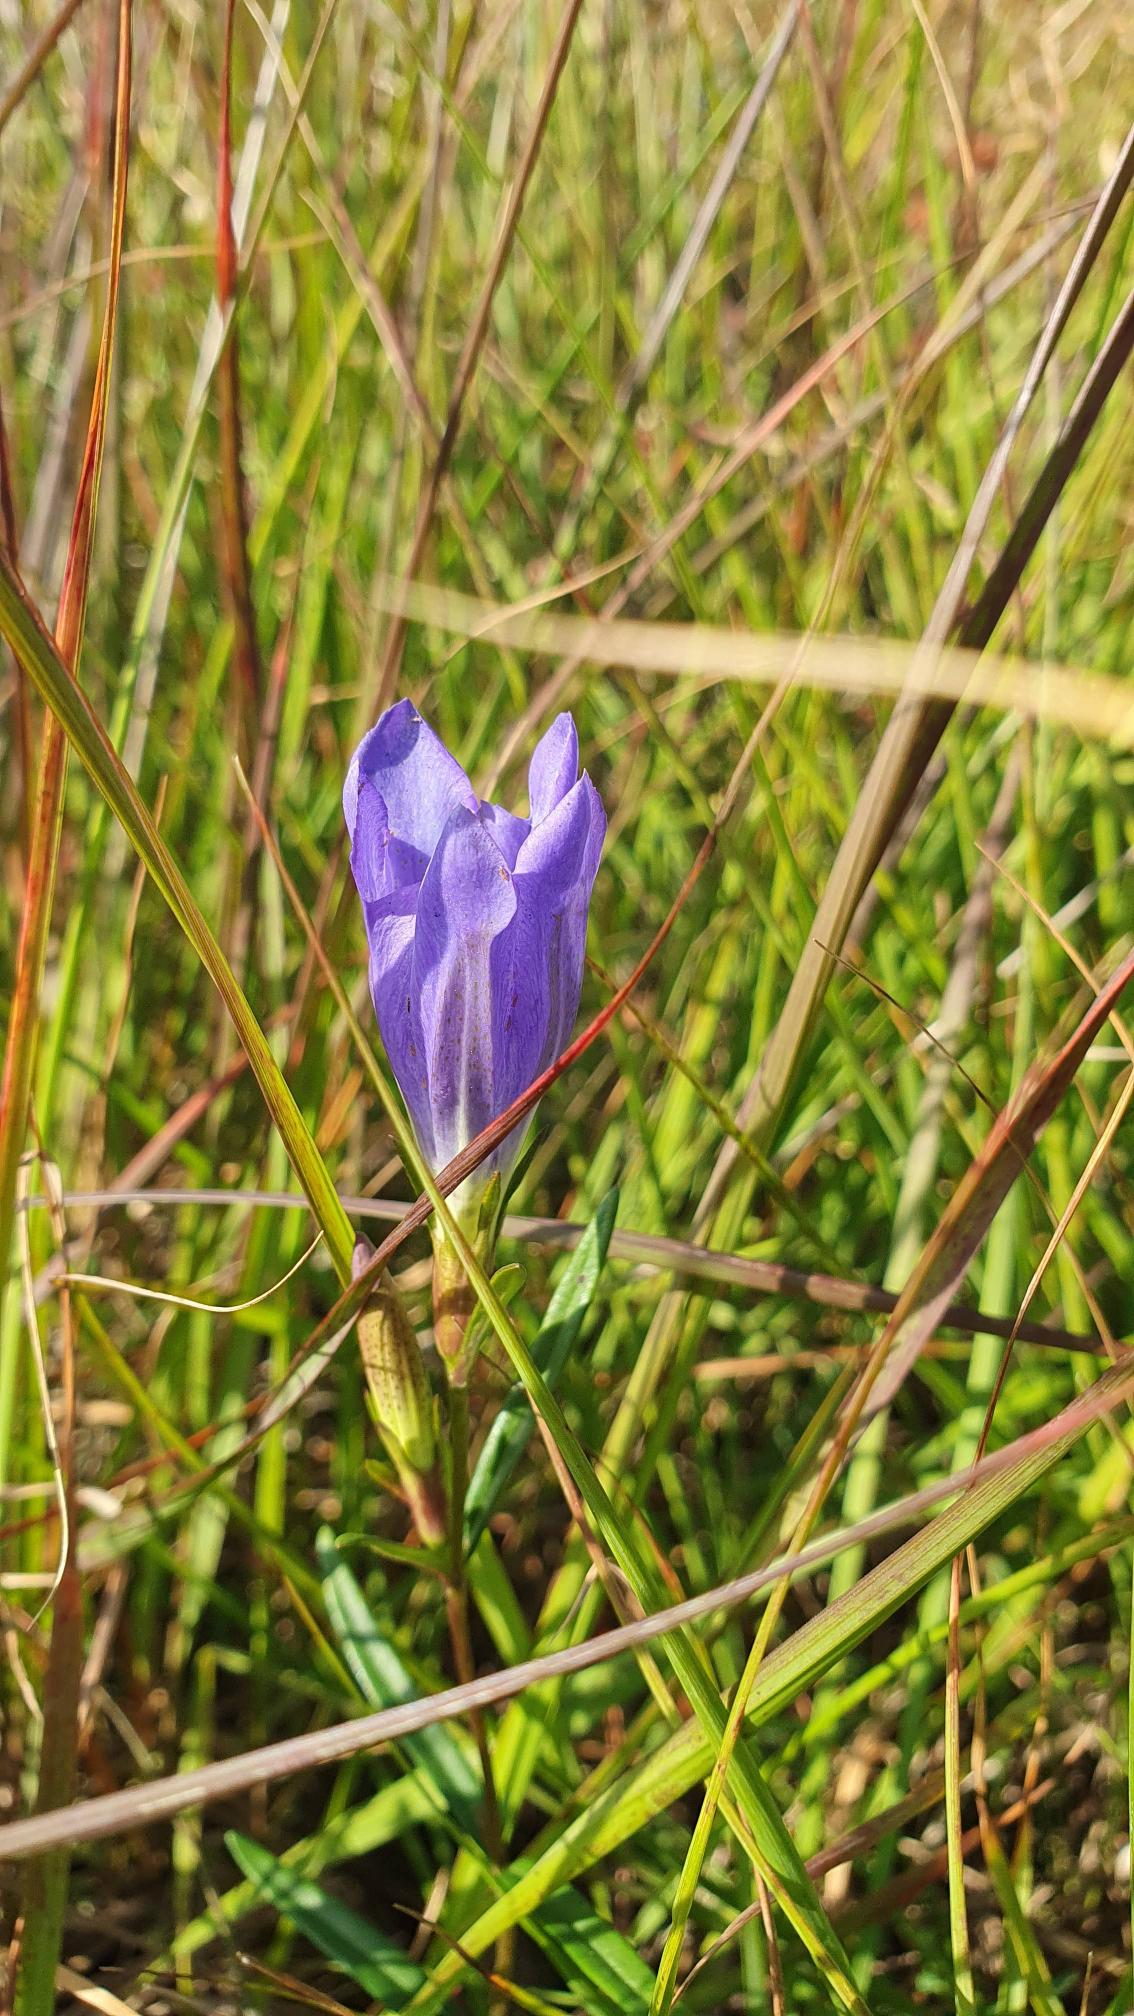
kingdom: Plantae
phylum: Tracheophyta
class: Magnoliopsida
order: Gentianales
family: Gentianaceae
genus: Gentiana
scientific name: Gentiana pneumonanthe
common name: Klokke-ensian
